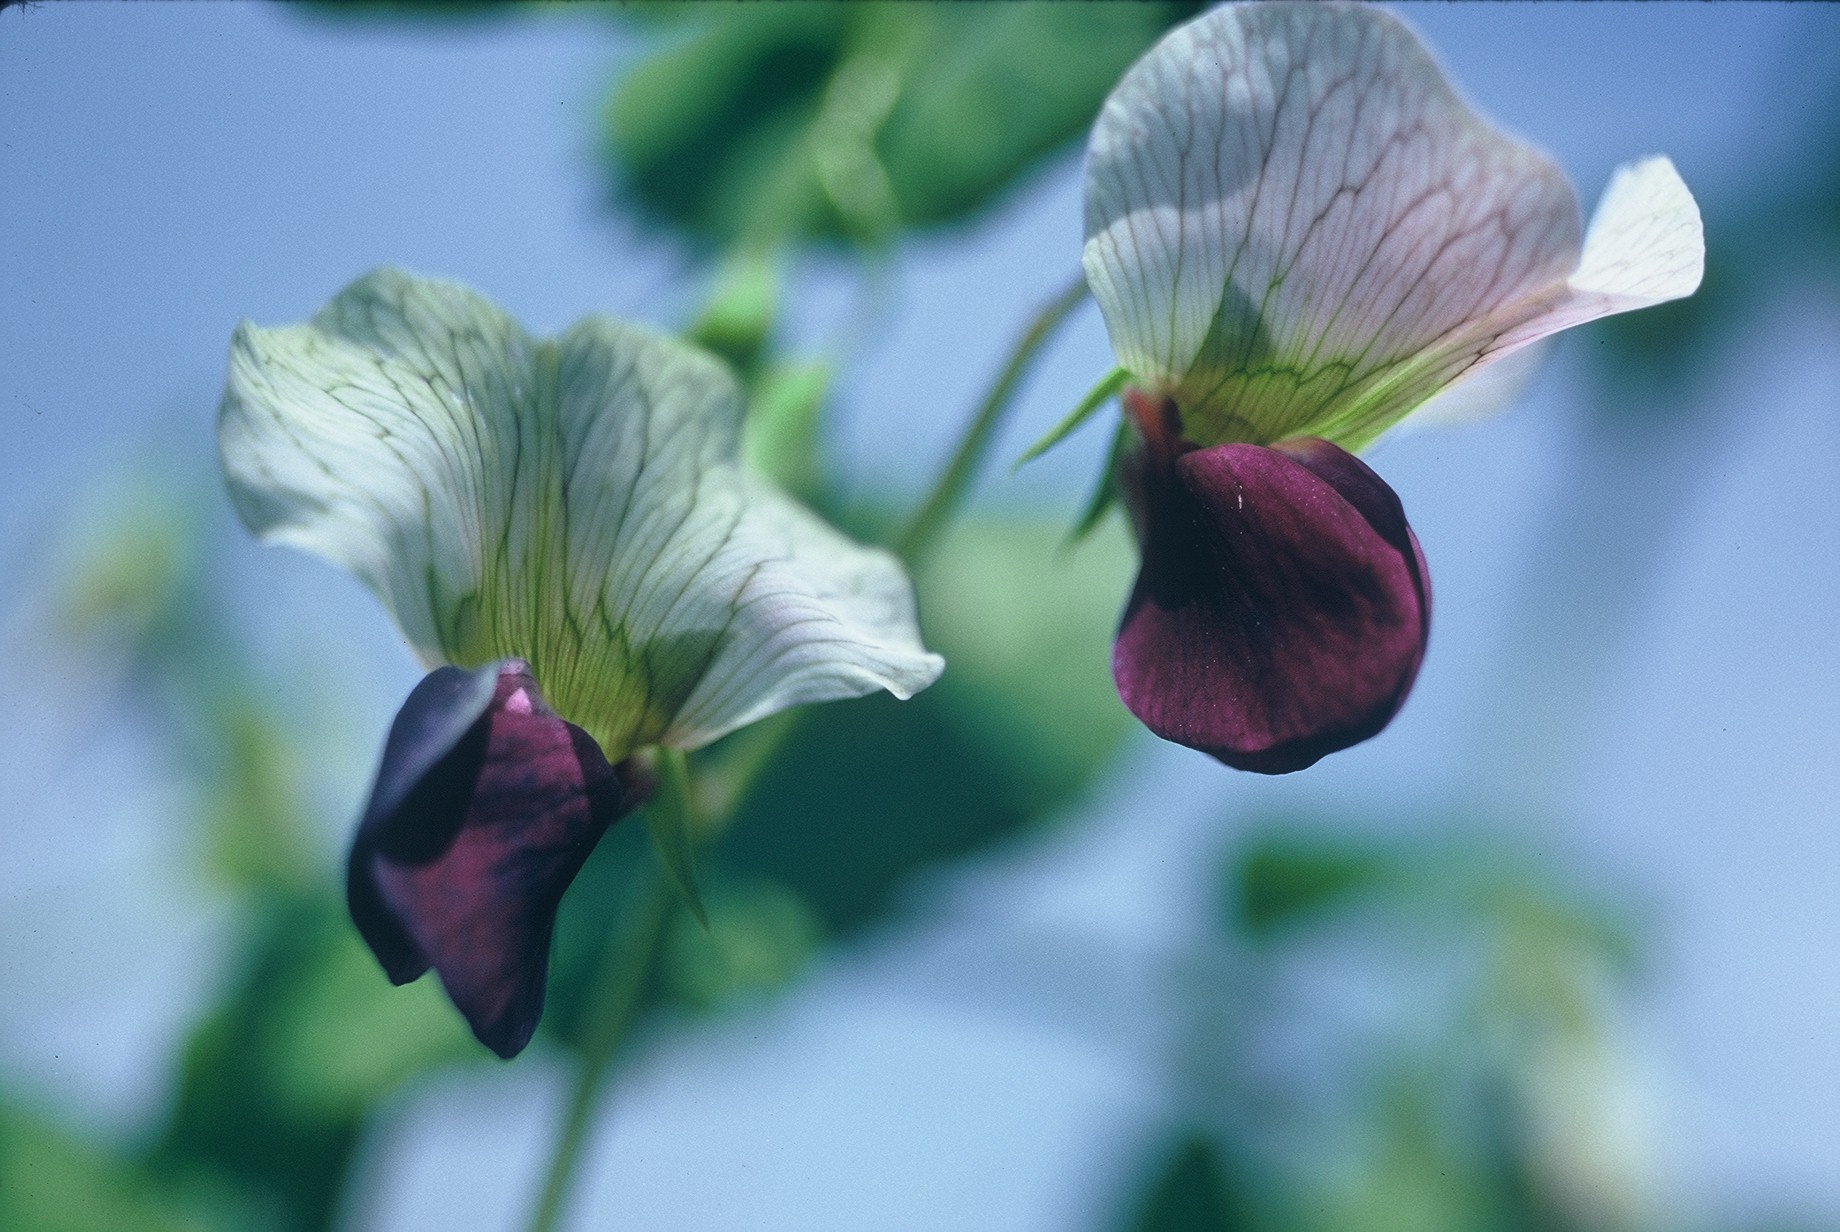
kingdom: Plantae
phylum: Tracheophyta
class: Magnoliopsida
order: Fabales
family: Fabaceae
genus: Lathyrus
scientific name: Lathyrus oleraceus
